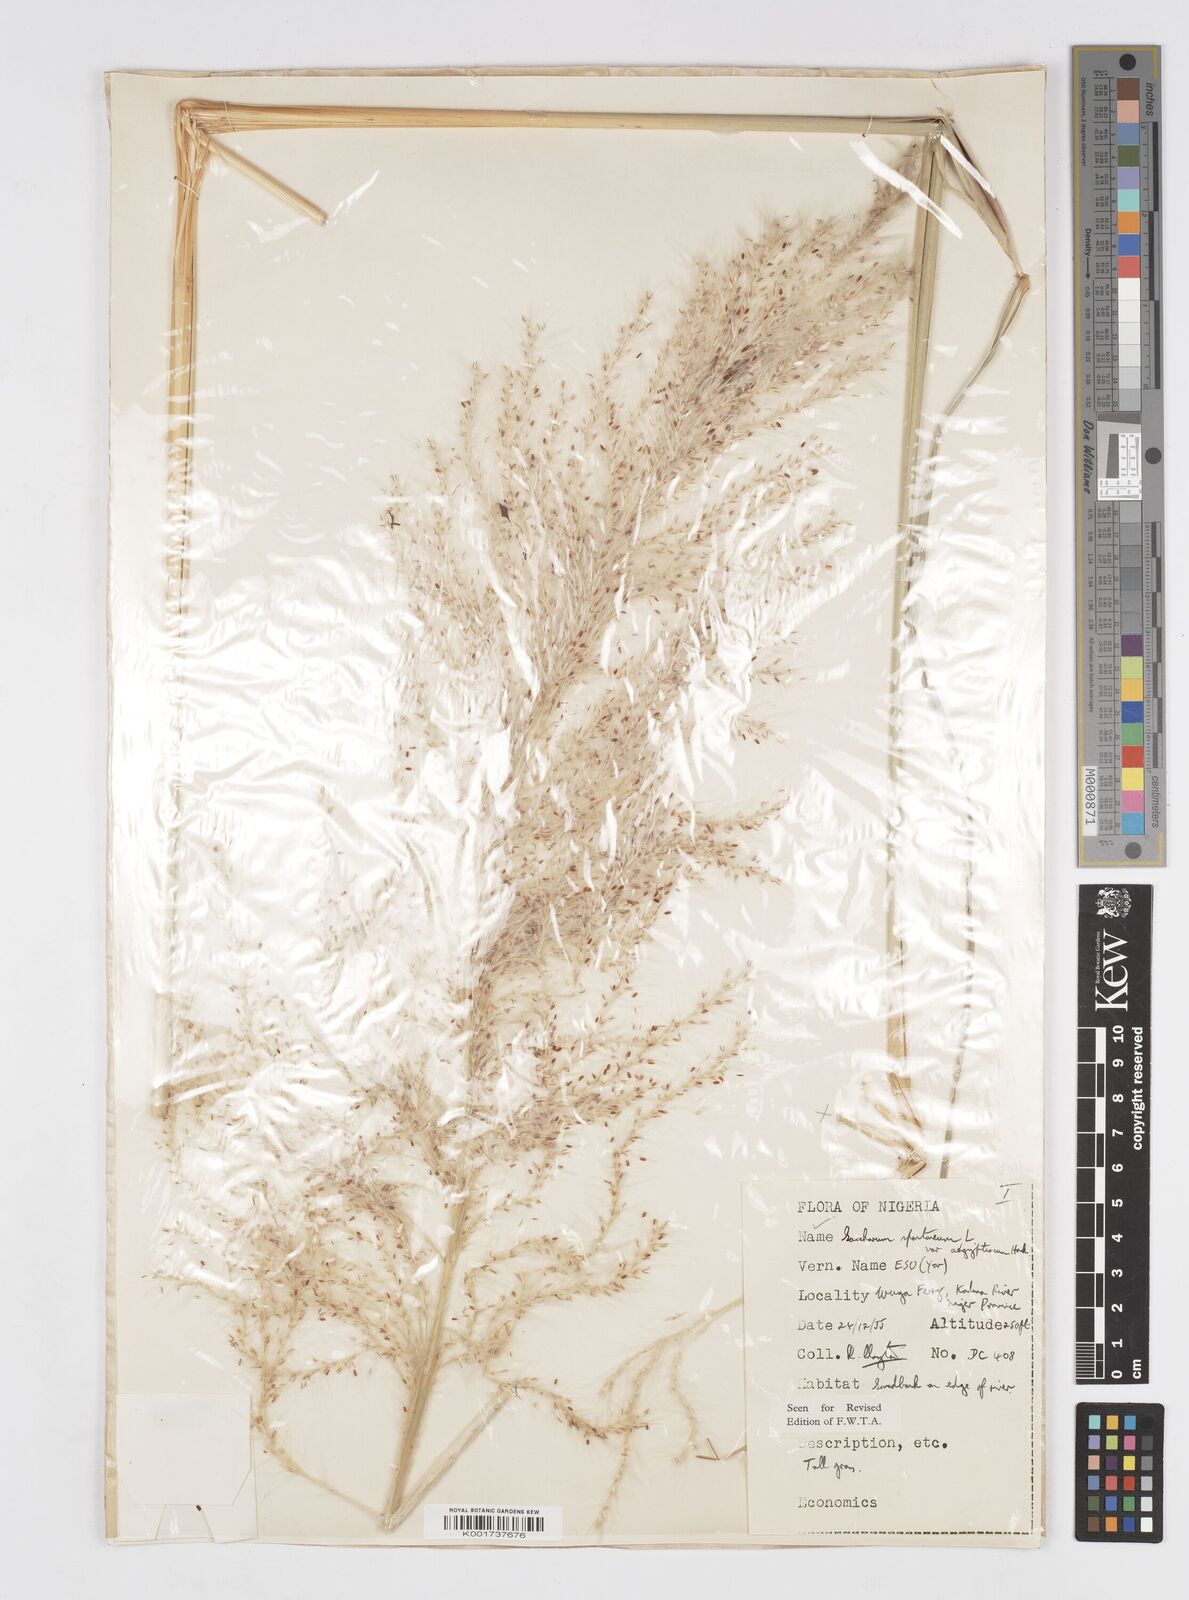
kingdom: Plantae
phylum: Tracheophyta
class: Liliopsida
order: Poales
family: Poaceae
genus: Saccharum
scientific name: Saccharum spontaneum
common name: Wild sugarcane
